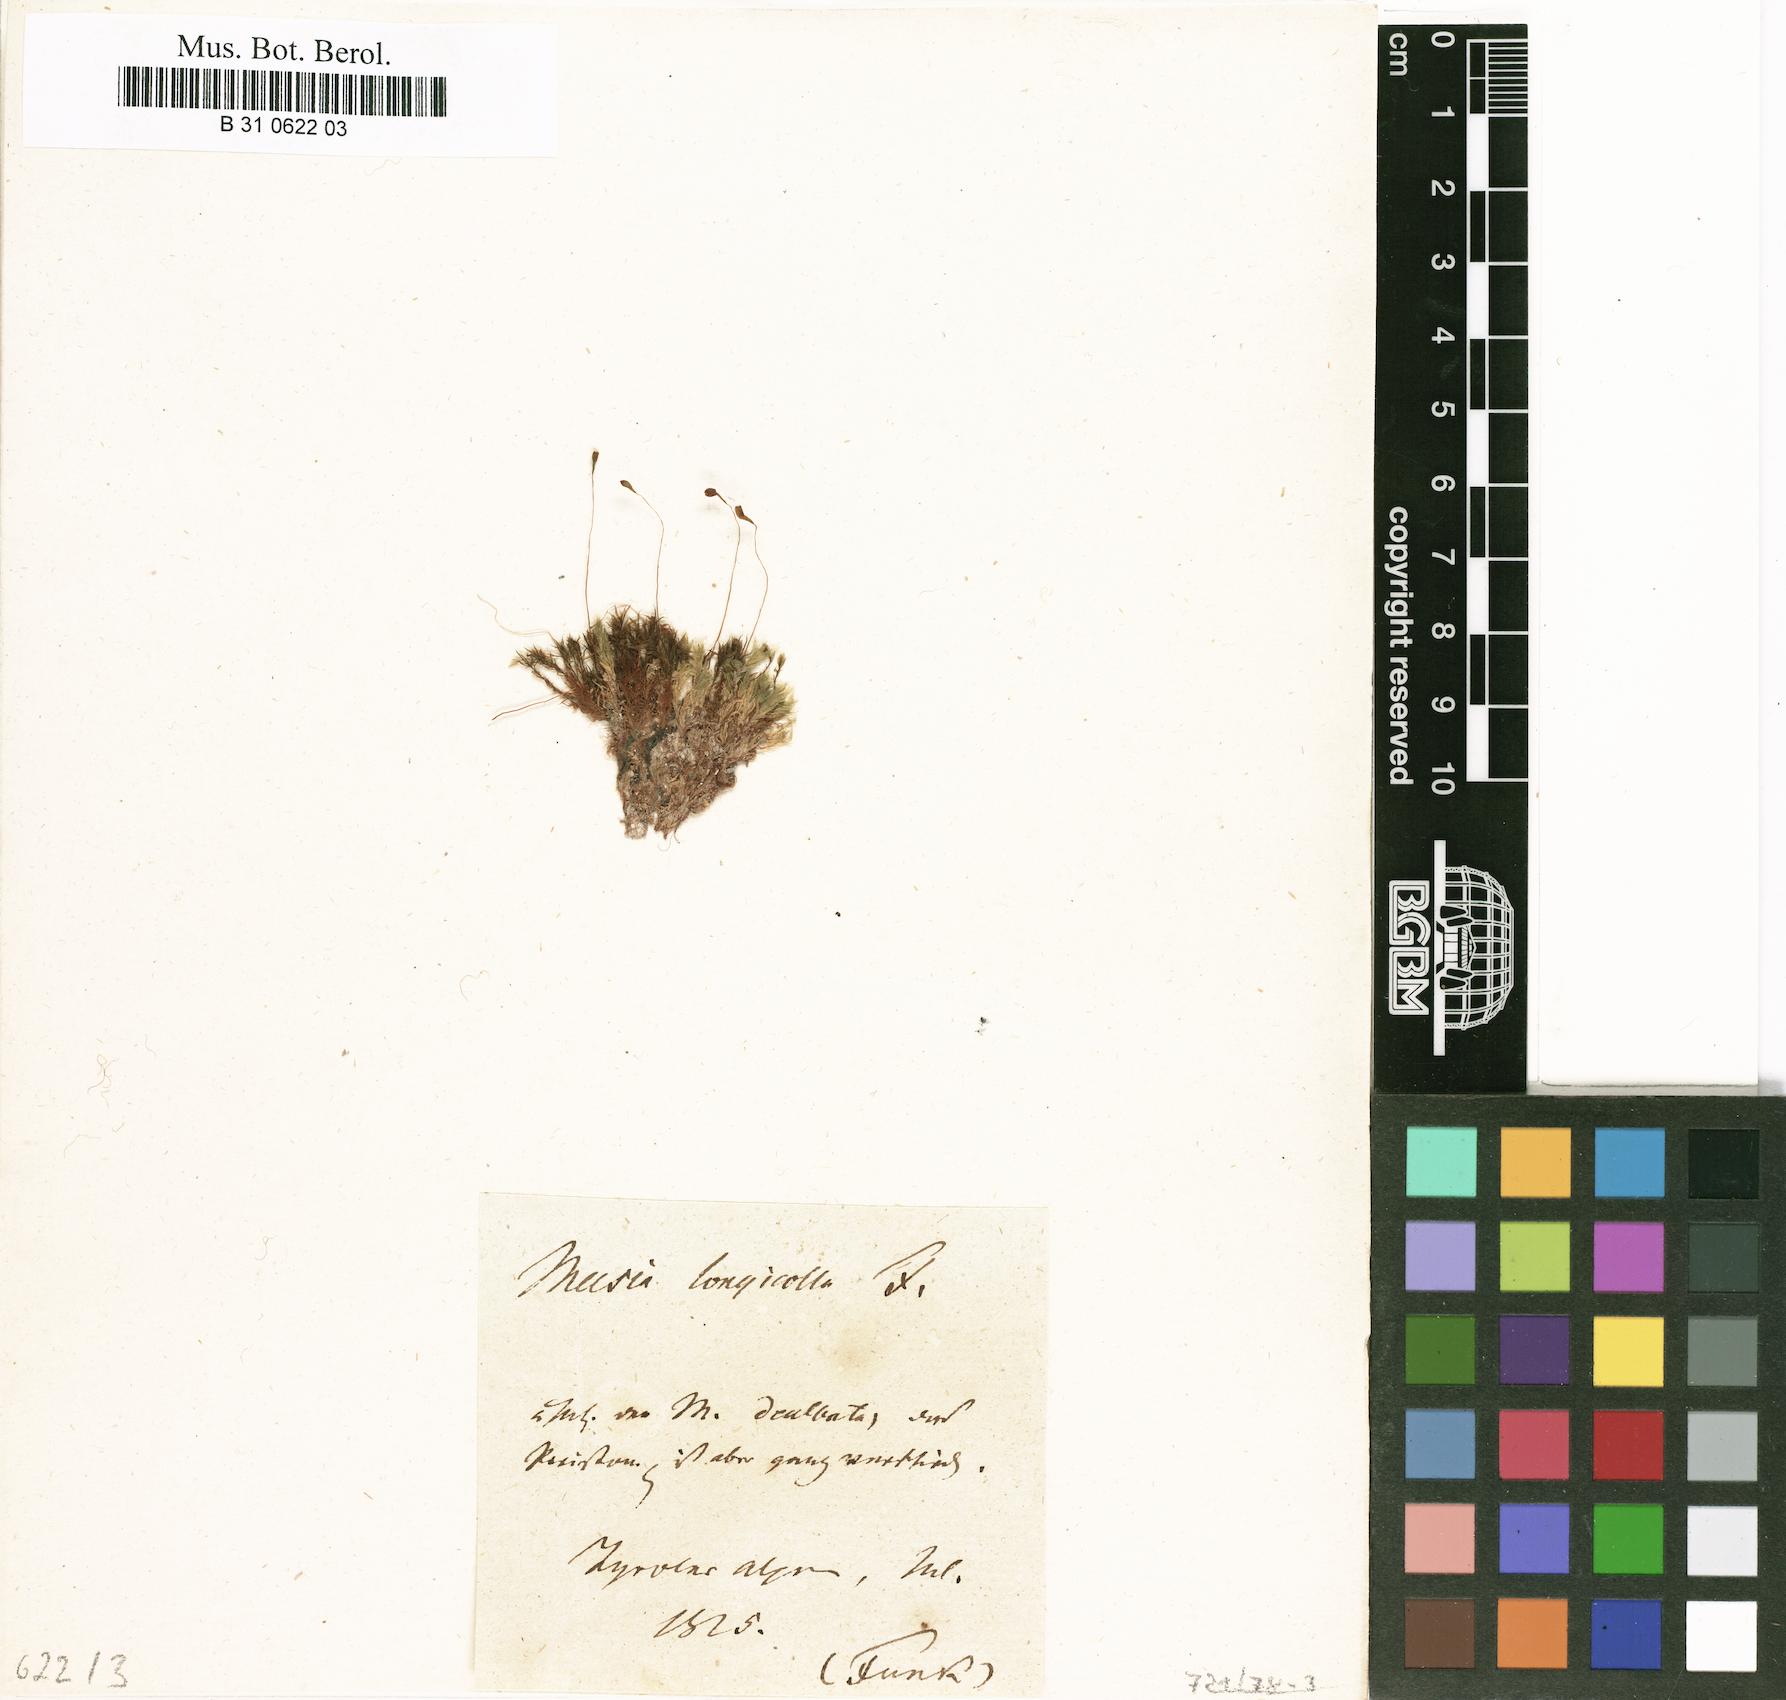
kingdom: Plantae
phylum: Bryophyta
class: Bryopsida
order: Splachnales
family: Meesiaceae
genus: Amblyodon
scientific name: Amblyodon dealbatus
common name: Short-toothed hump moss
